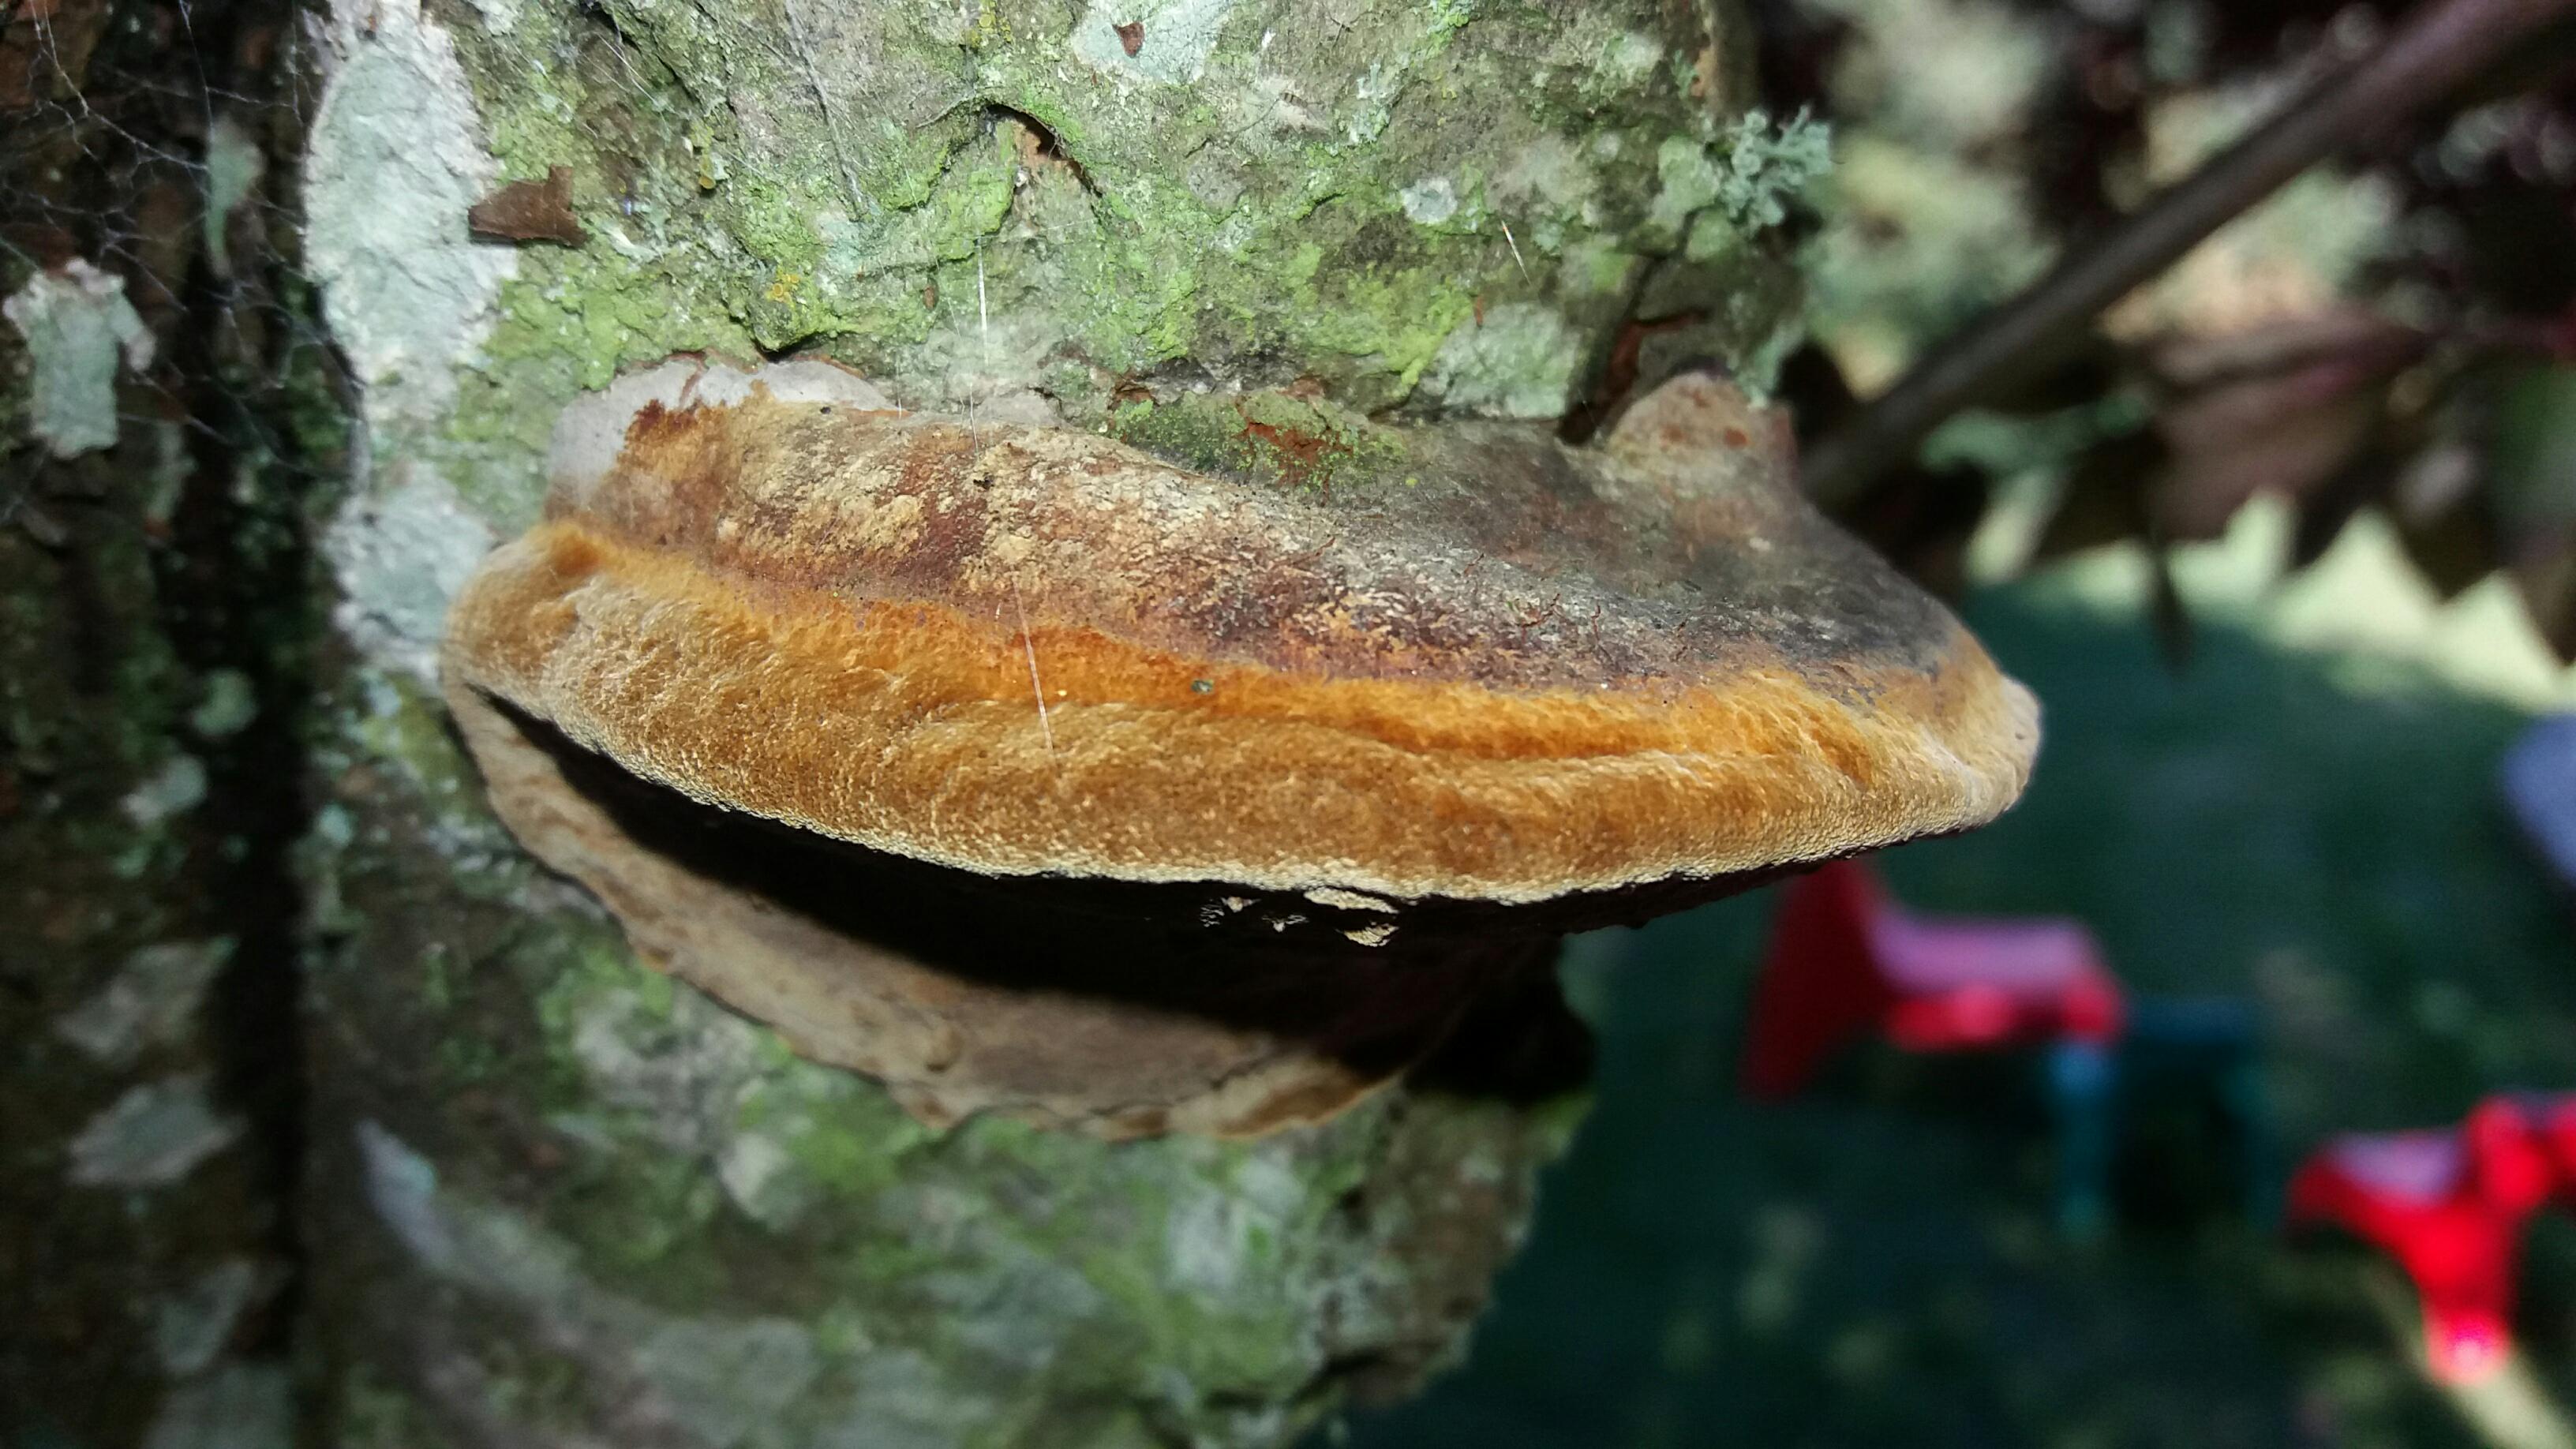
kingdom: Fungi
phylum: Basidiomycota
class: Agaricomycetes
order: Hymenochaetales
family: Hymenochaetaceae
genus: Phellinus
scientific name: Phellinus pomaceus
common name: blomme-ildporesvamp
